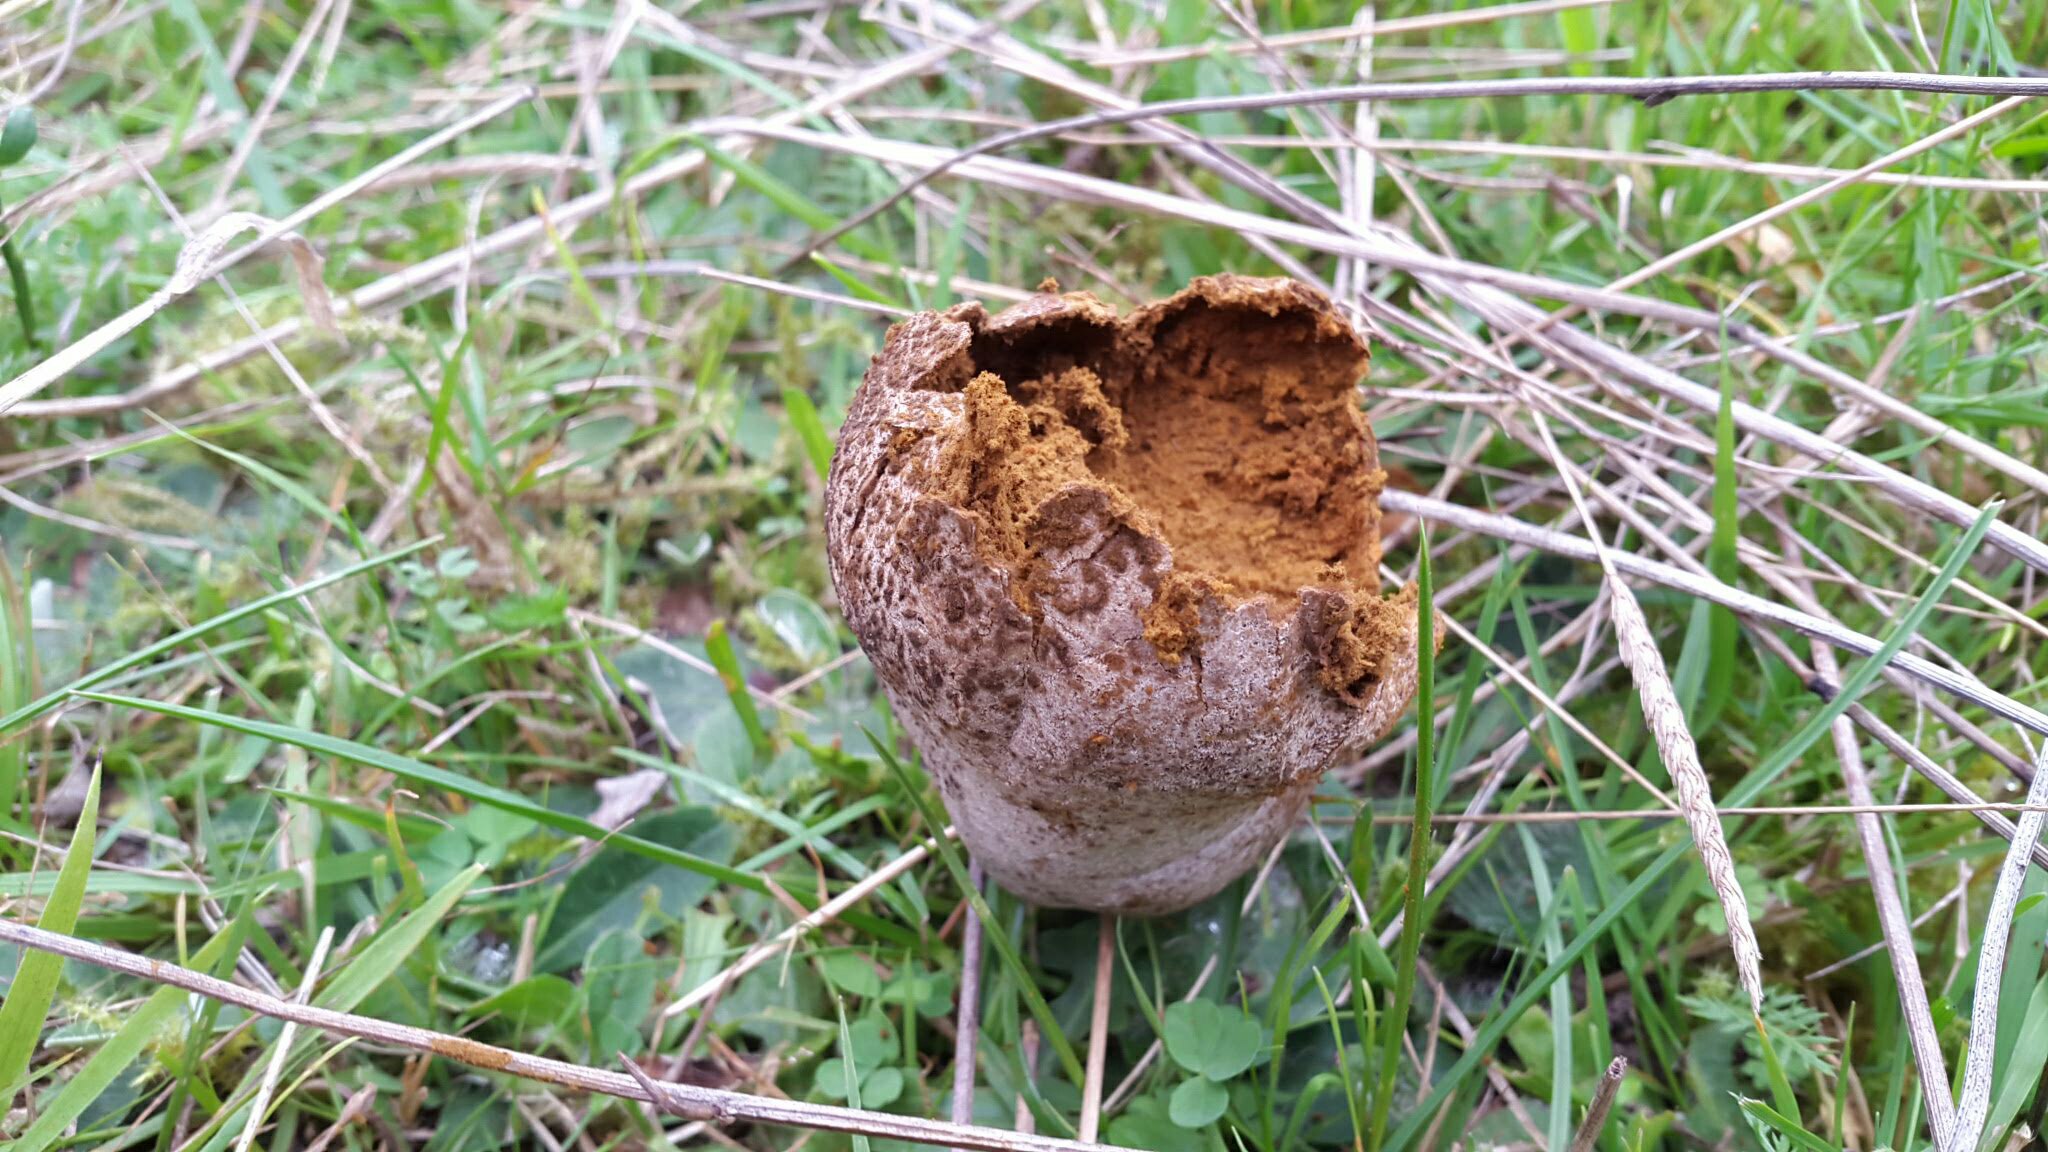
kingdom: Fungi
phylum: Basidiomycota
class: Agaricomycetes
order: Agaricales
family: Lycoperdaceae
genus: Bovistella
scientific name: Bovistella utriformis
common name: skællet støvbold
